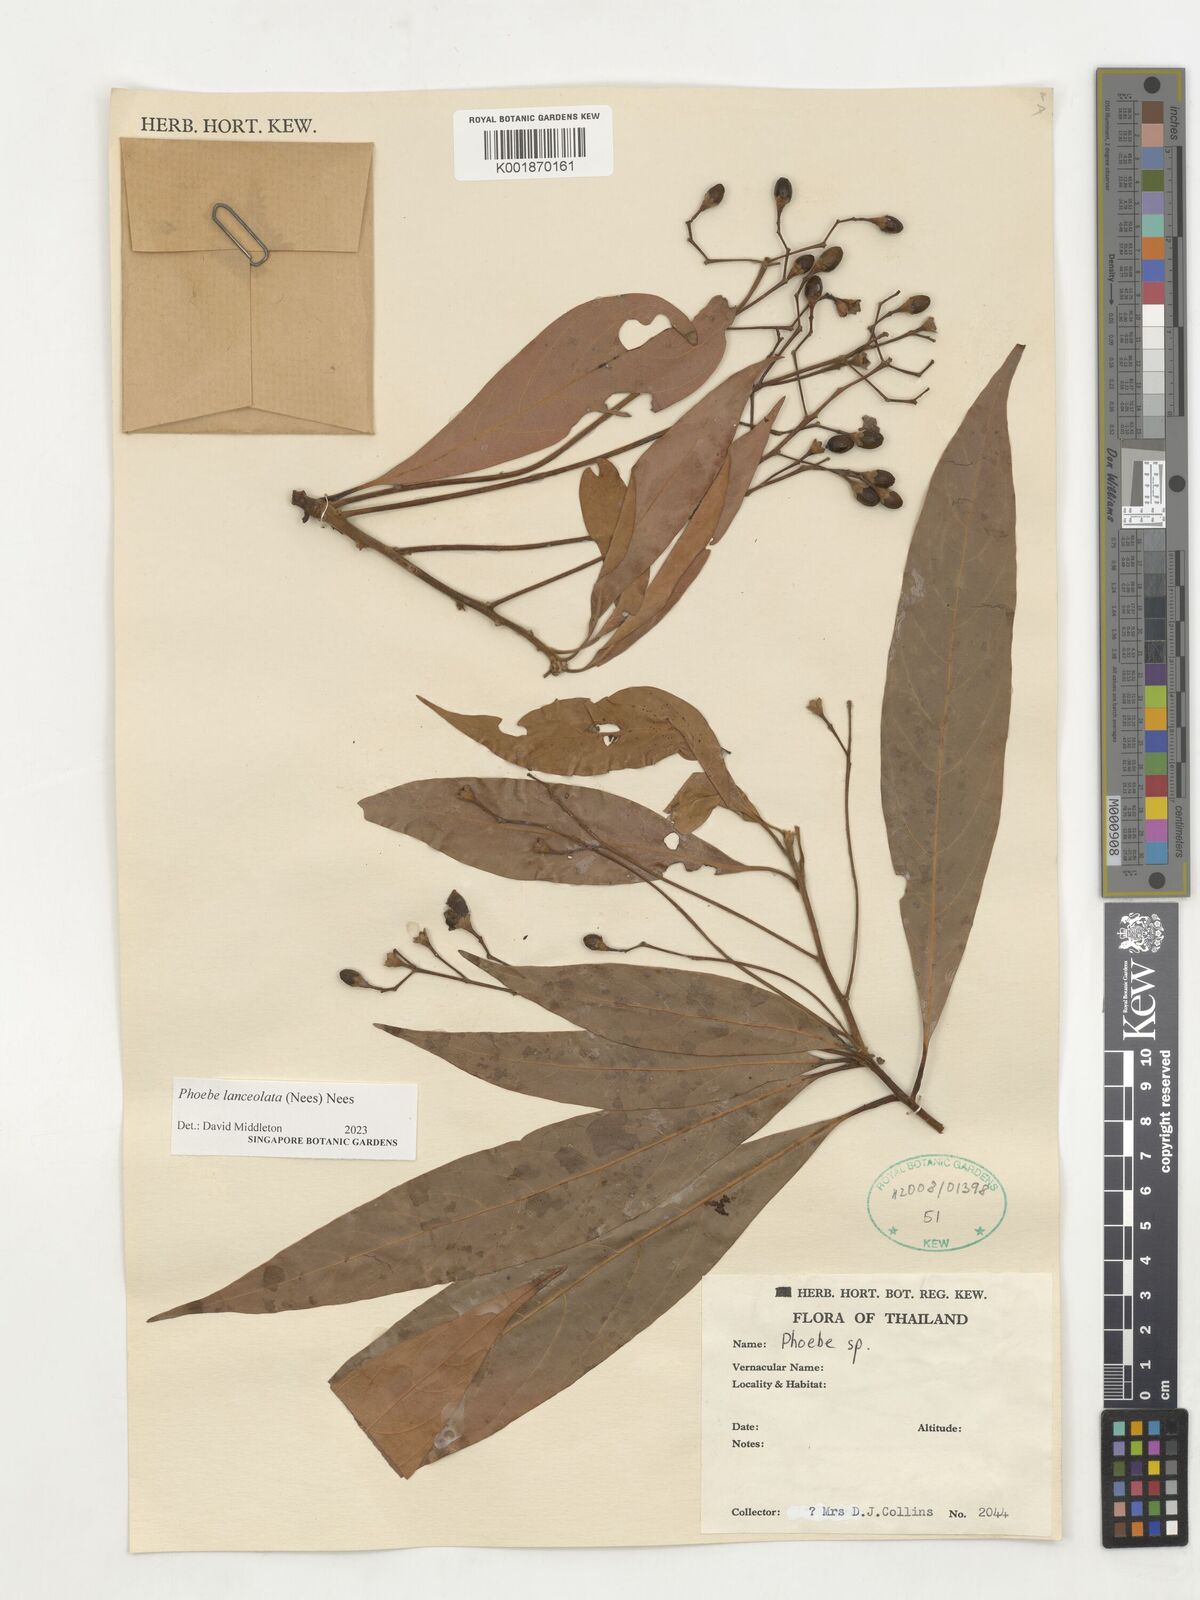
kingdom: Plantae
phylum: Tracheophyta
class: Magnoliopsida
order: Laurales
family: Lauraceae
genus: Phoebe
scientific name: Phoebe lanceolata
